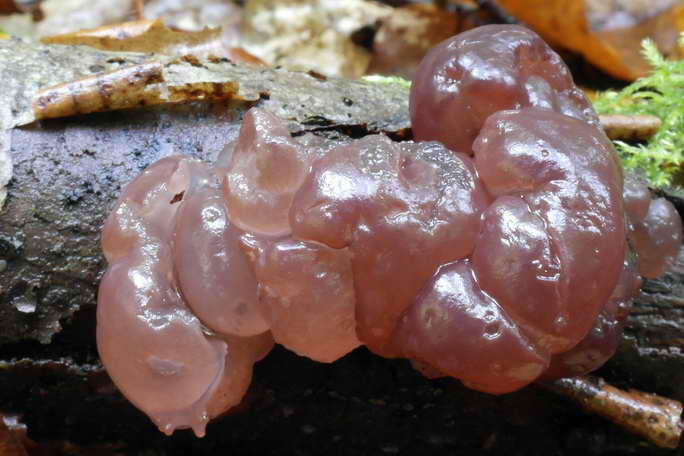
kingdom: Fungi
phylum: Ascomycota
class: Leotiomycetes
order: Helotiales
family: Gelatinodiscaceae
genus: Ascotremella
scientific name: Ascotremella faginea
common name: hjerne-bævreskive
